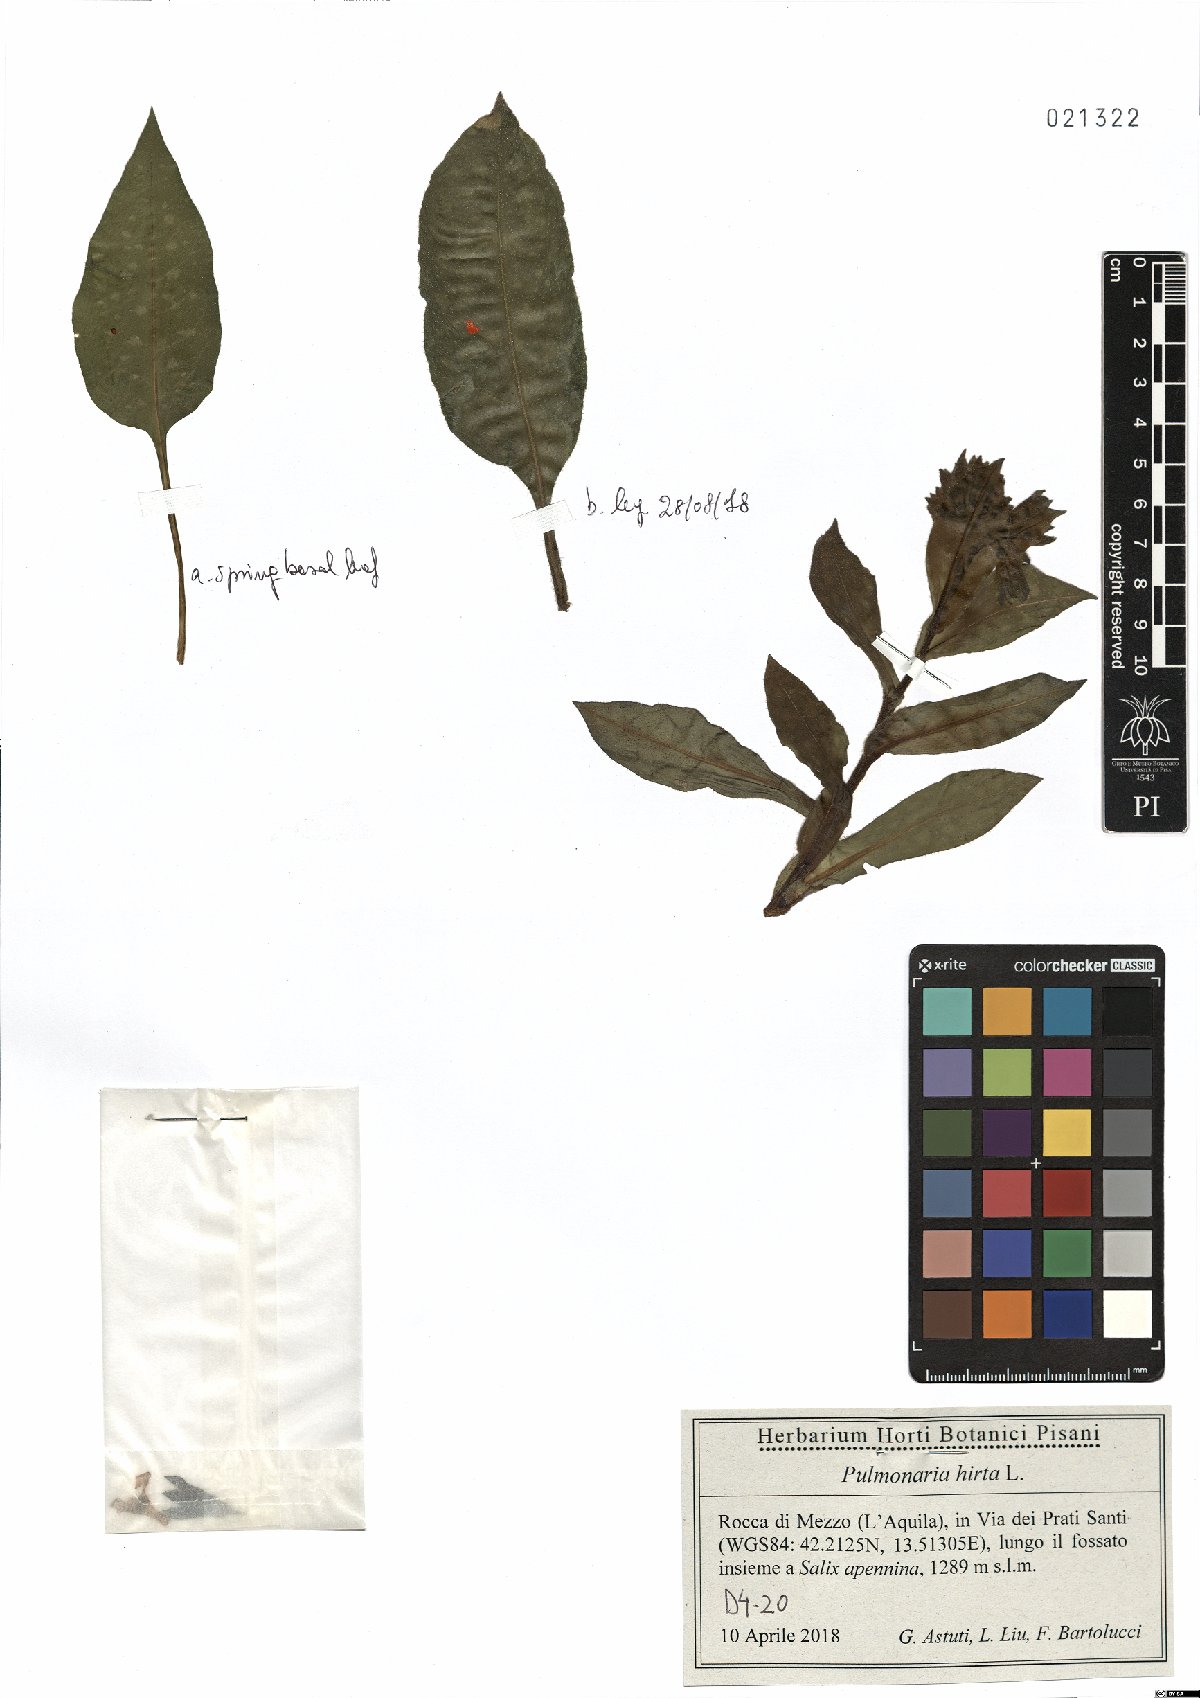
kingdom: Plantae
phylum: Tracheophyta
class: Magnoliopsida
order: Boraginales
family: Boraginaceae
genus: Pulmonaria
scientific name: Pulmonaria hirta
